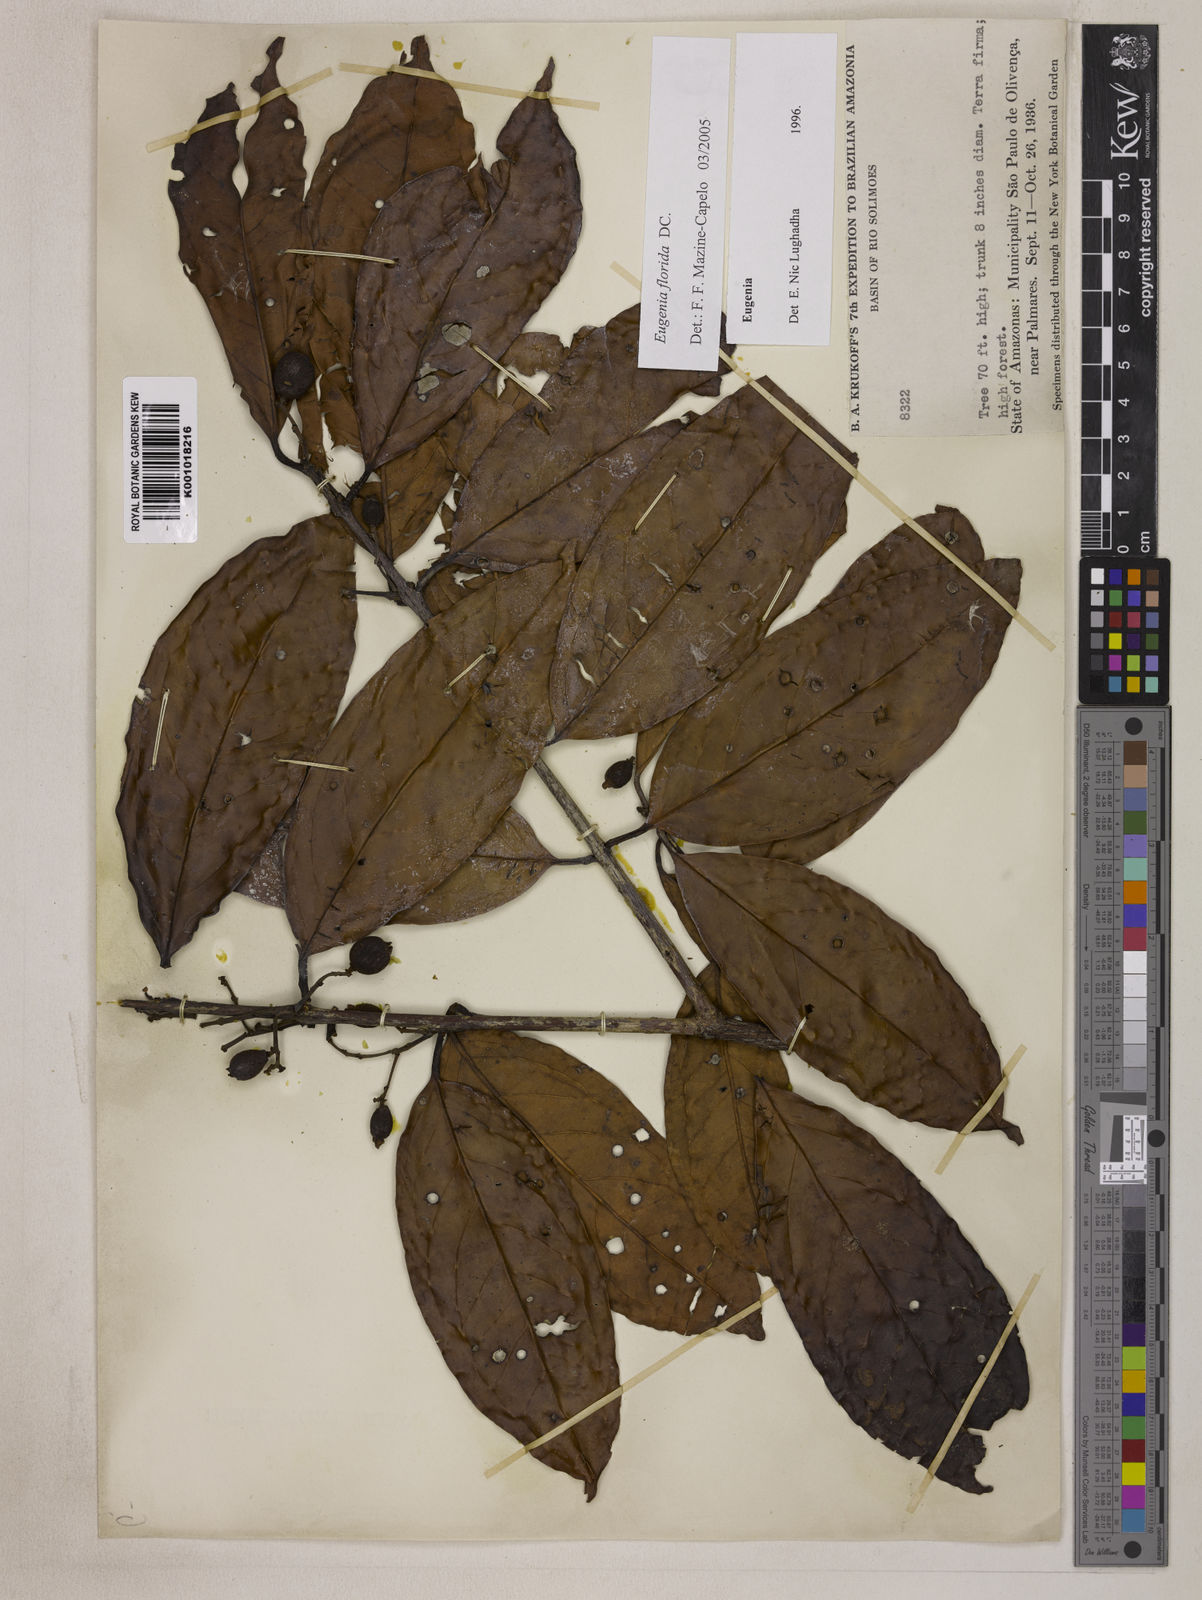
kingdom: Plantae
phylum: Tracheophyta
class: Magnoliopsida
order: Myrtales
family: Myrtaceae
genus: Eugenia
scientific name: Eugenia florida
